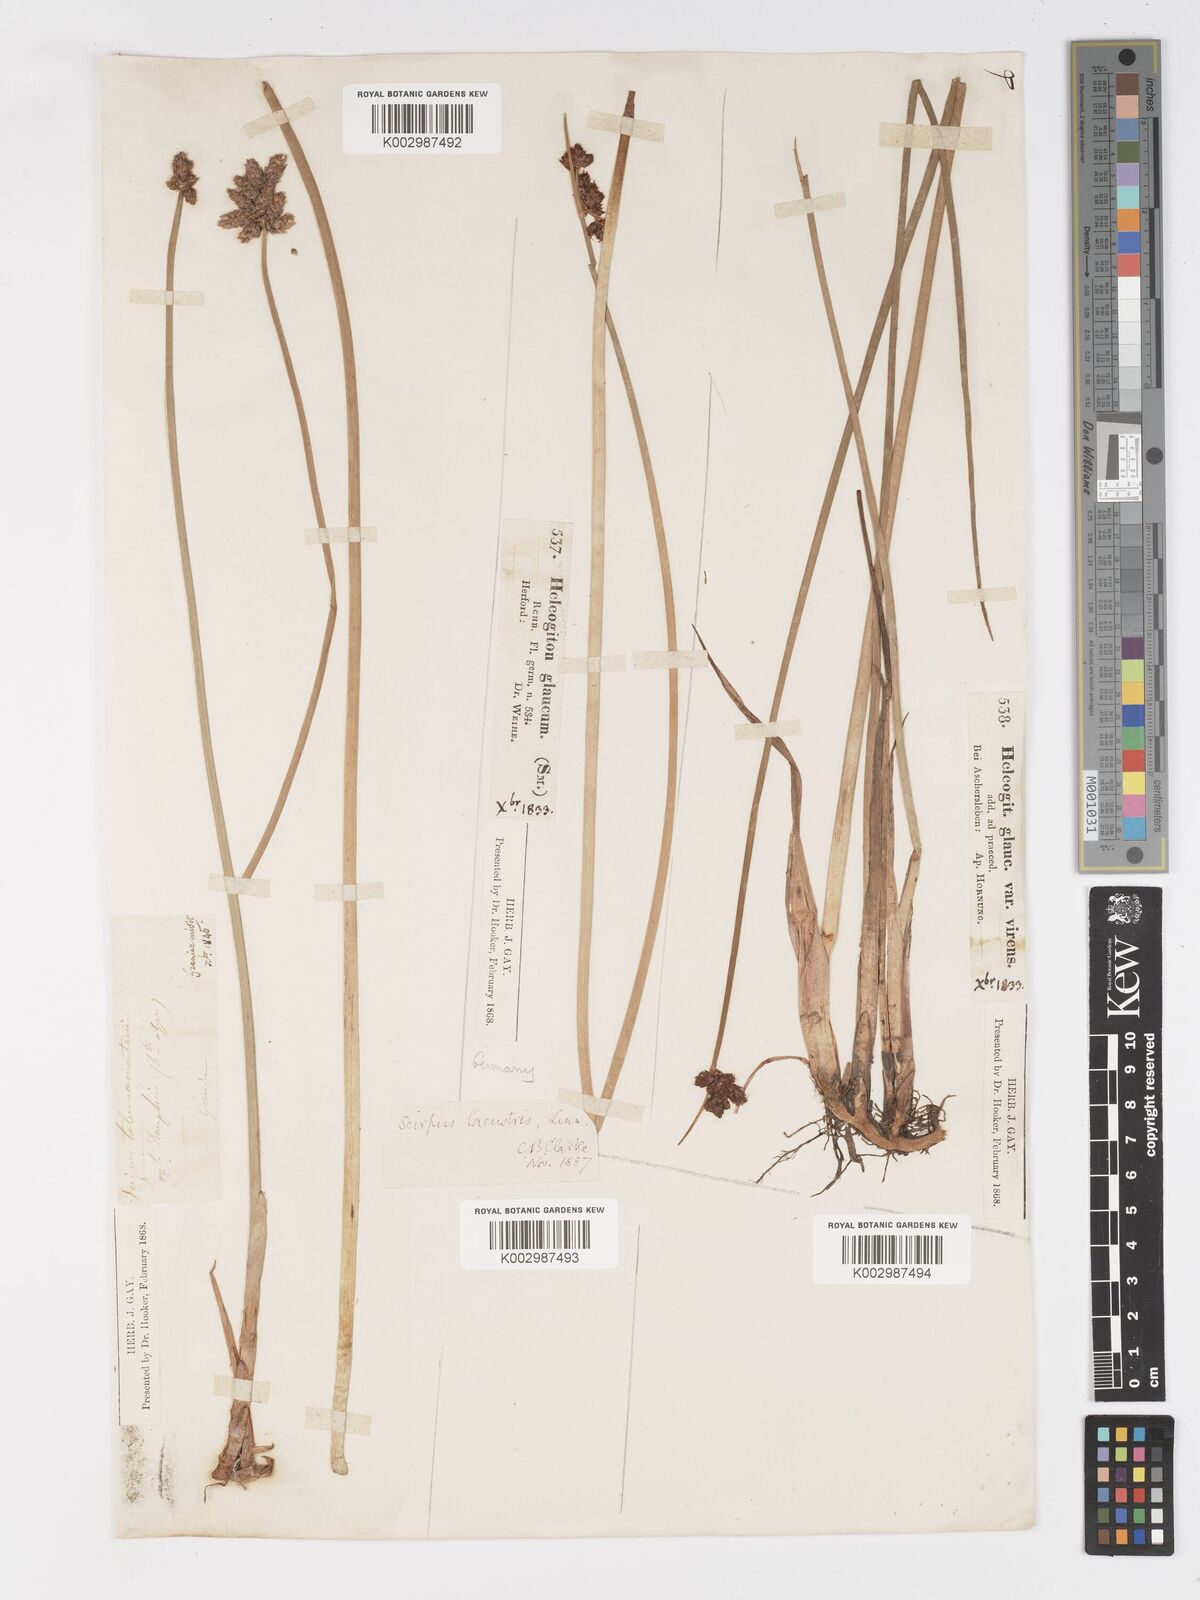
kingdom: Plantae
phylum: Tracheophyta
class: Liliopsida
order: Poales
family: Cyperaceae
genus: Schoenoplectus
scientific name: Schoenoplectus lacustris
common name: Common club-rush
